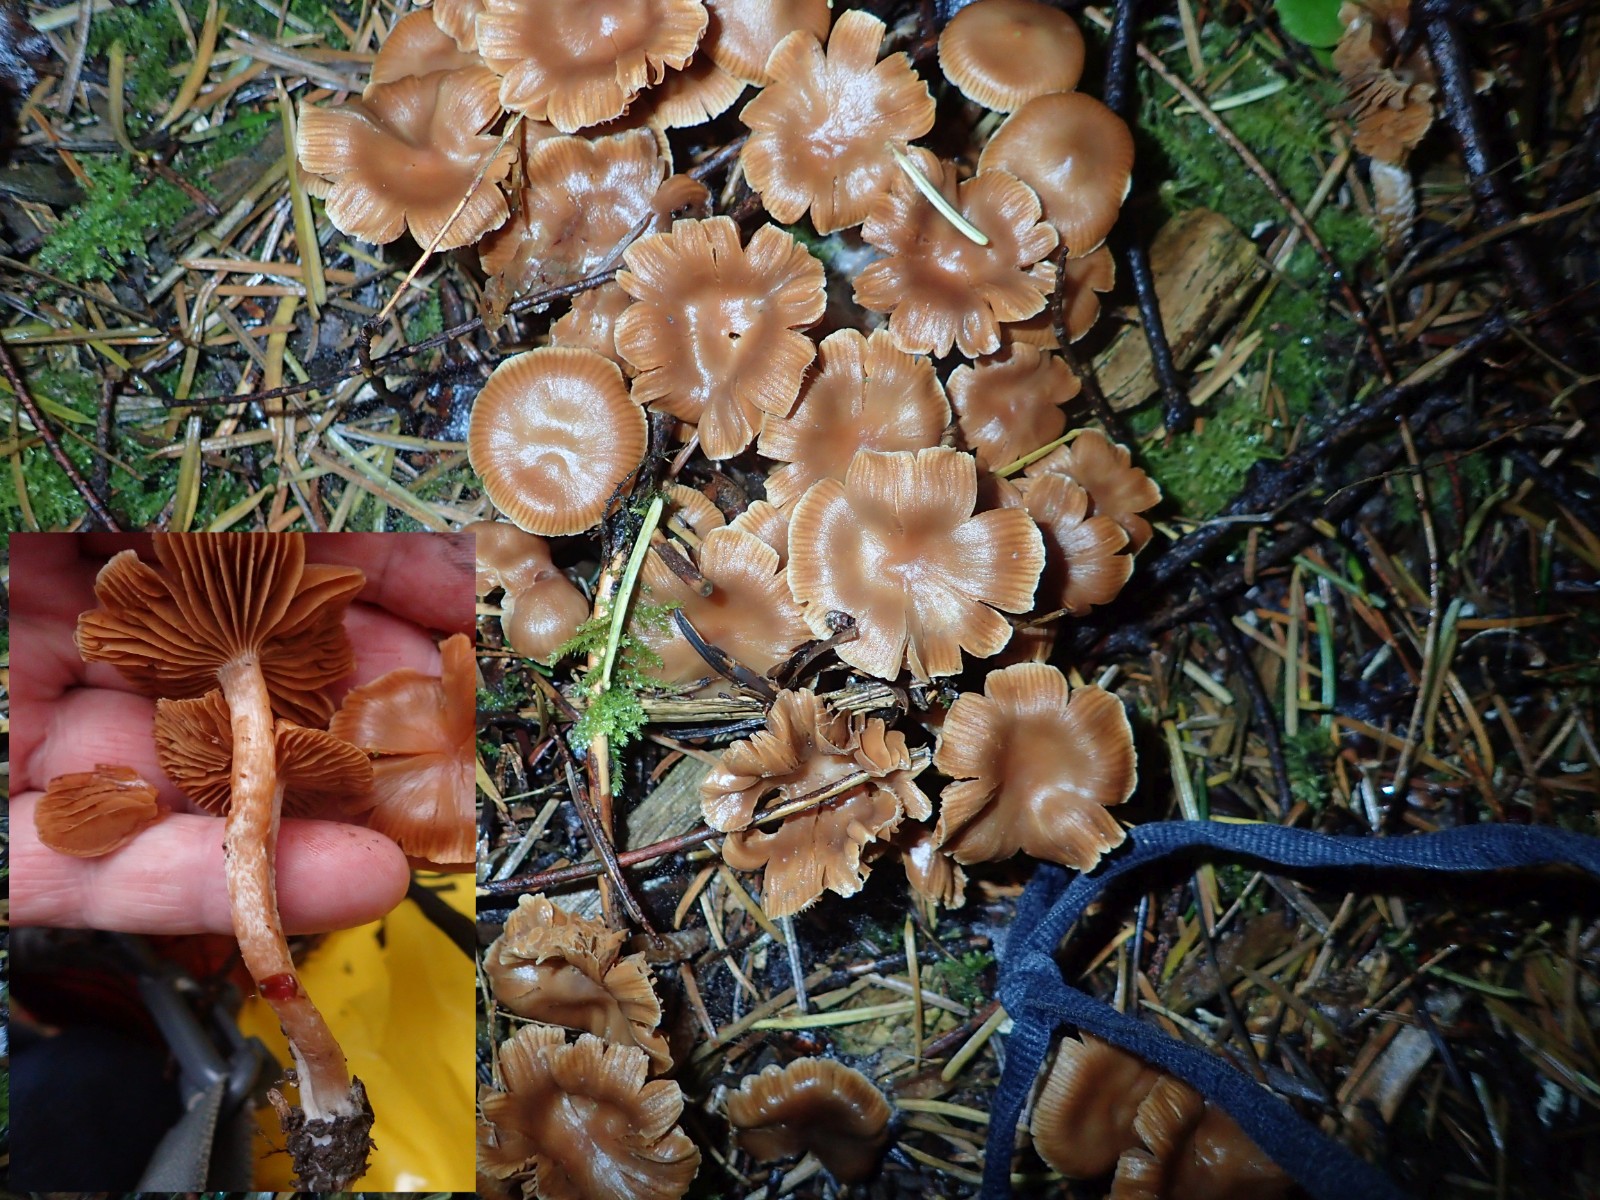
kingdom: Fungi
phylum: Basidiomycota
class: Agaricomycetes
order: Agaricales
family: Cortinariaceae
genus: Cortinarius
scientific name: Cortinarius
